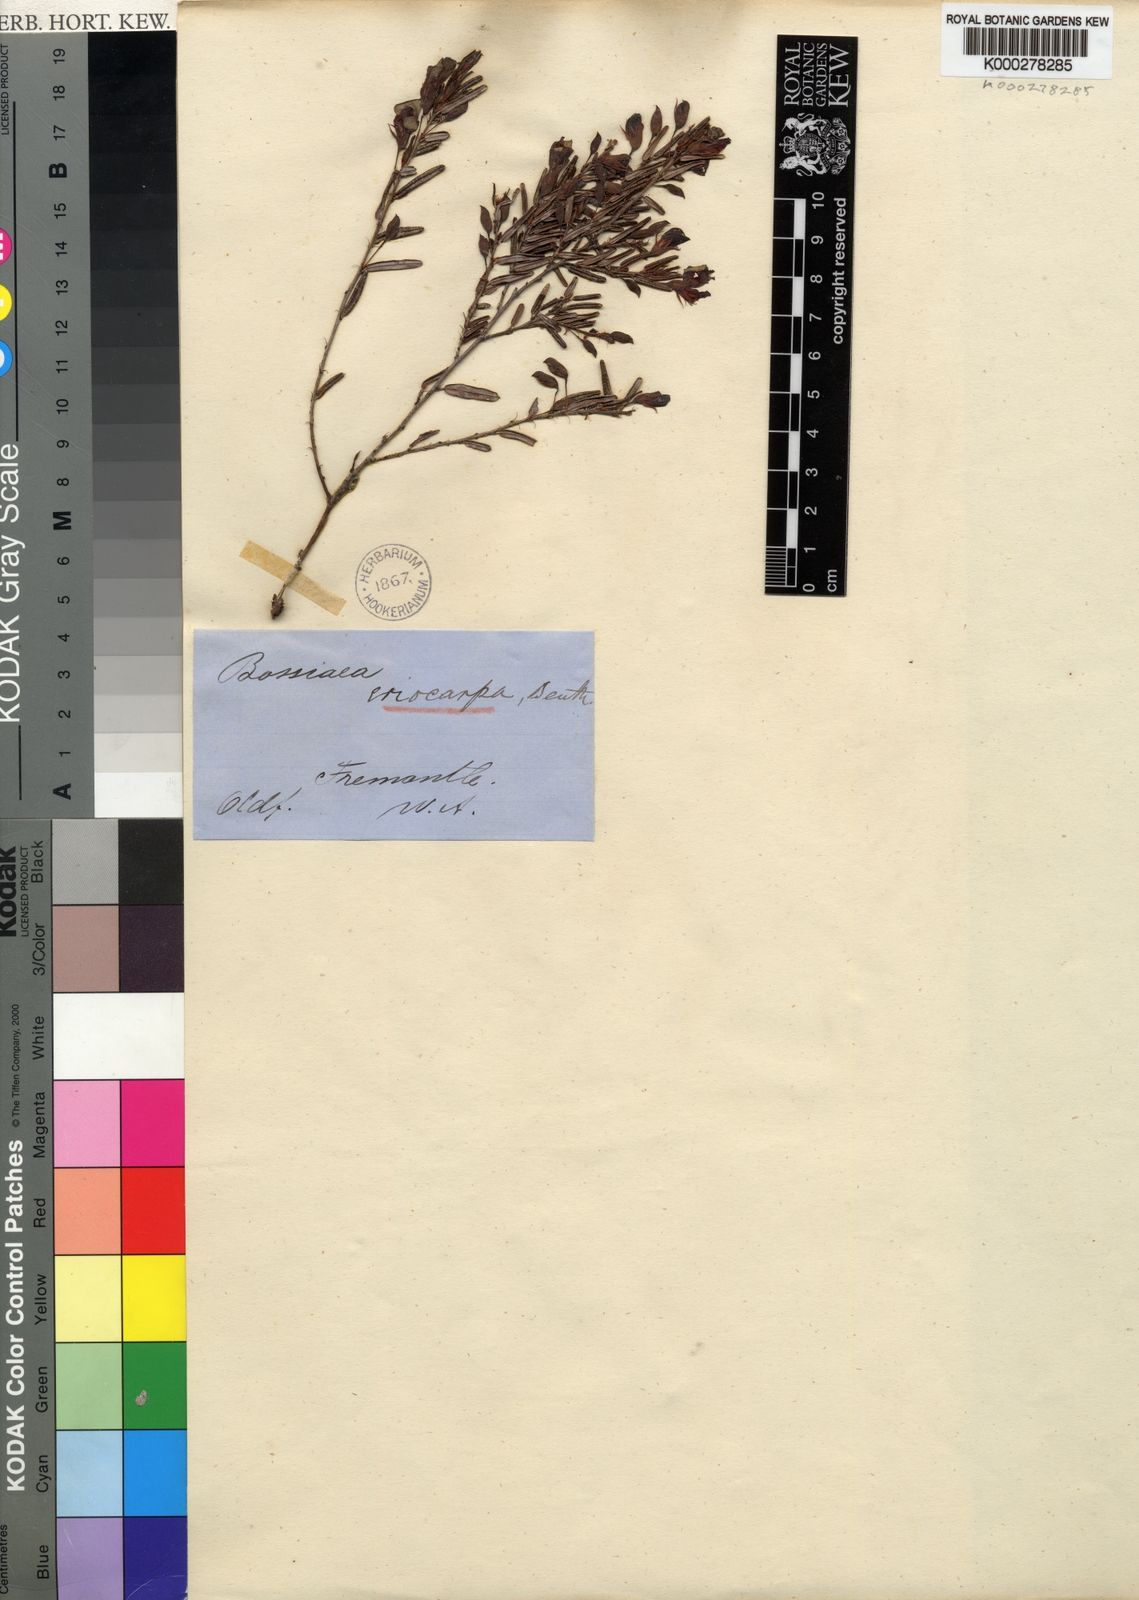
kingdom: Plantae
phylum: Tracheophyta
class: Magnoliopsida
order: Fabales
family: Fabaceae
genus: Bossiaea
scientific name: Bossiaea eriocarpa
